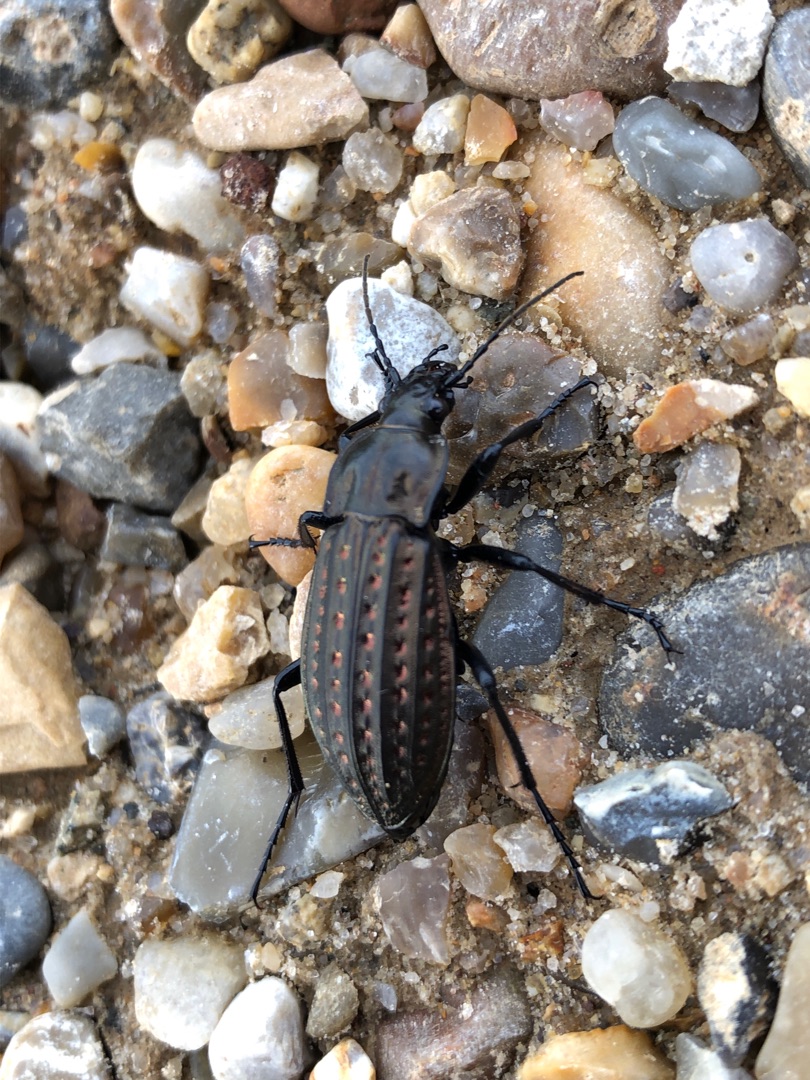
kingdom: Animalia
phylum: Arthropoda
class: Insecta
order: Coleoptera
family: Carabidae
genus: Carabus
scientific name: Carabus clatratus
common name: Dyndløber
